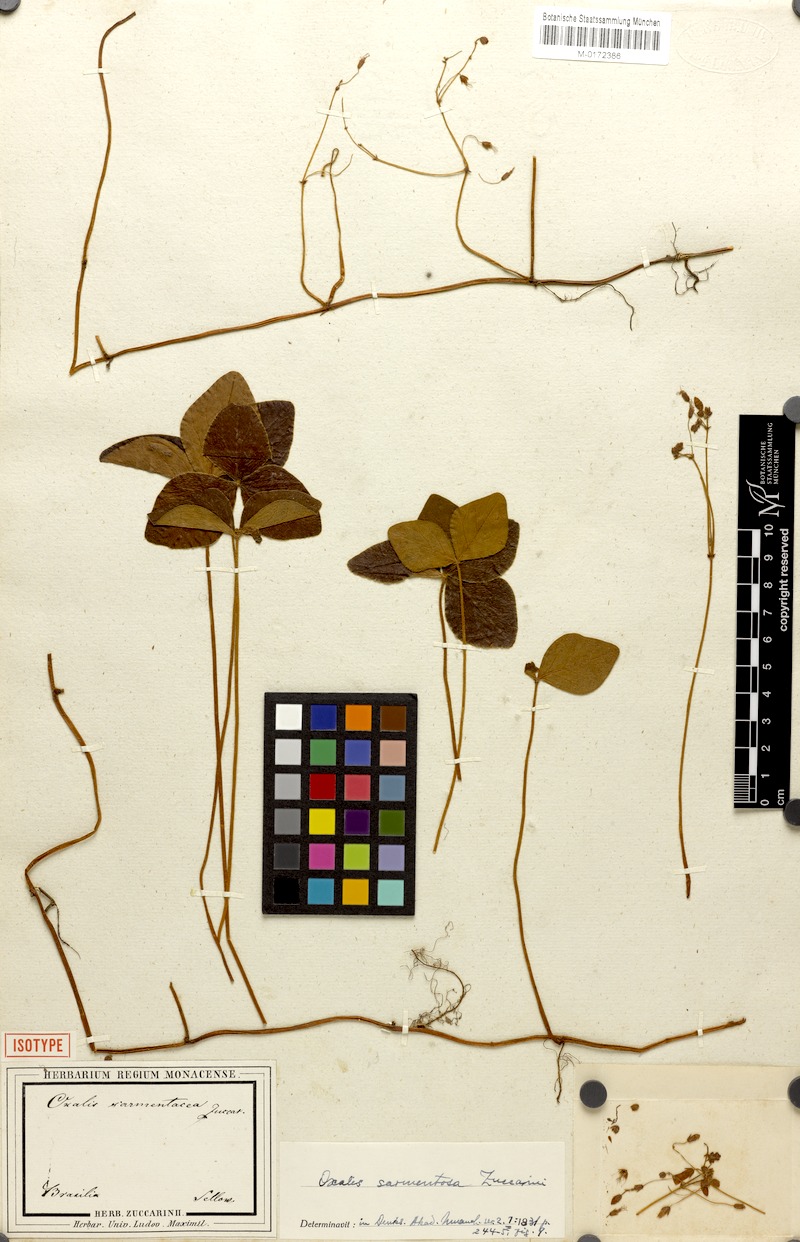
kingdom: Plantae
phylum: Tracheophyta
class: Magnoliopsida
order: Oxalidales
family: Oxalidaceae
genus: Oxalis
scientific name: Oxalis sarmentosa
